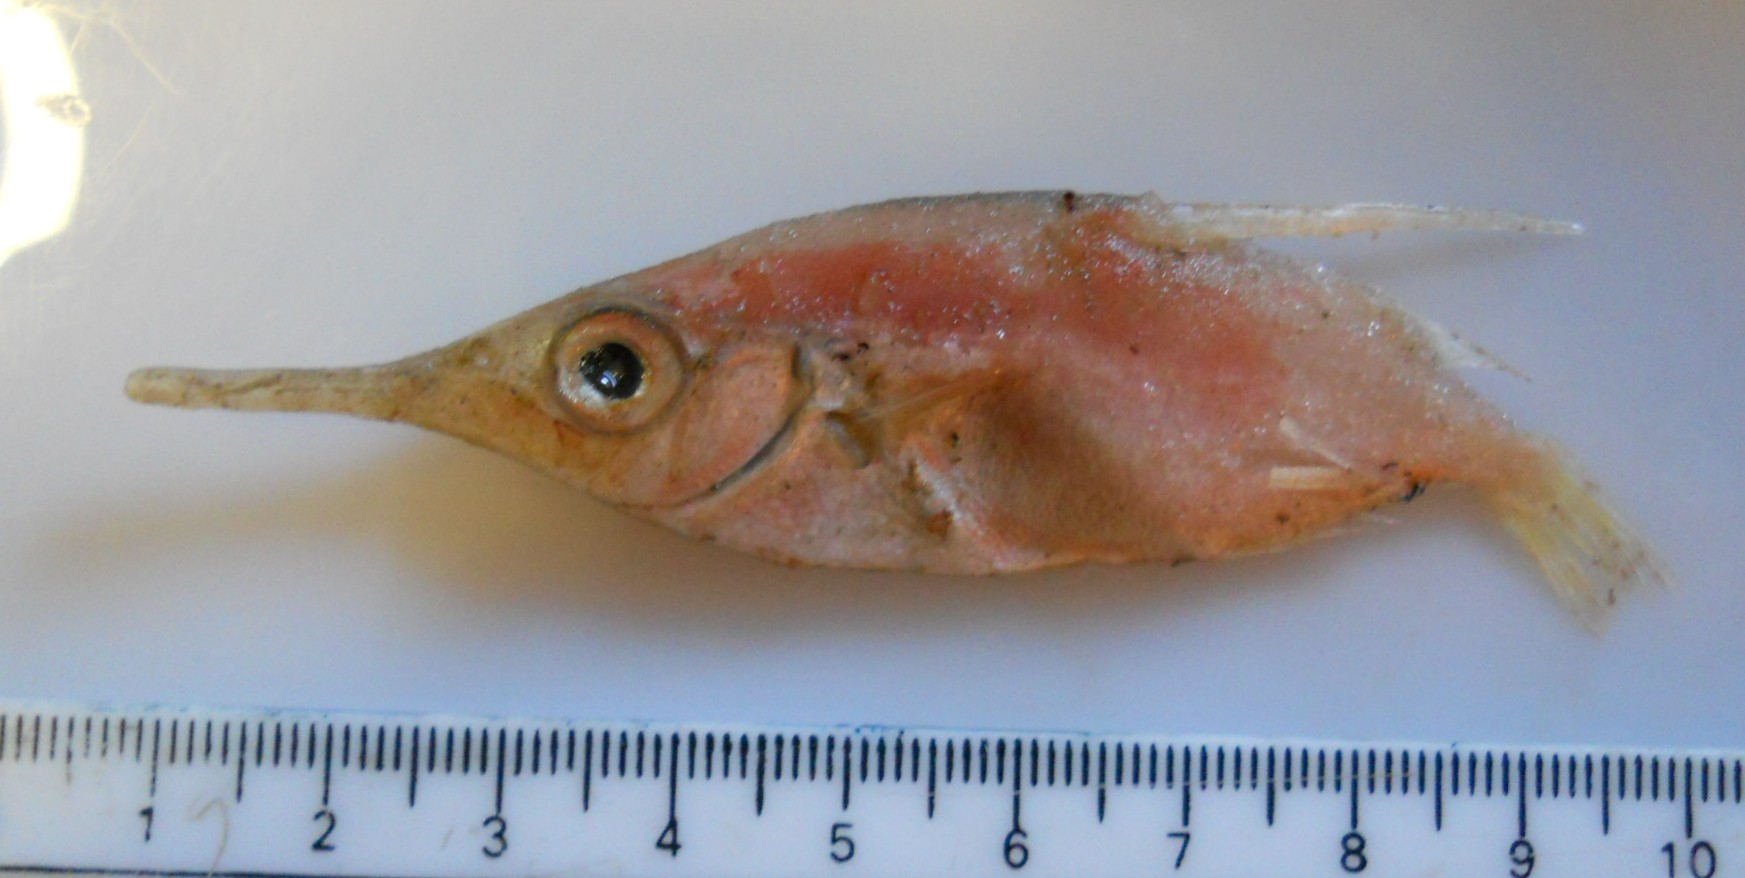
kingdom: Animalia
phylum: Chordata
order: Syngnathiformes
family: Centriscidae
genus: Macroramphosus
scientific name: Macroramphosus scolopax
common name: Snipe-fish
